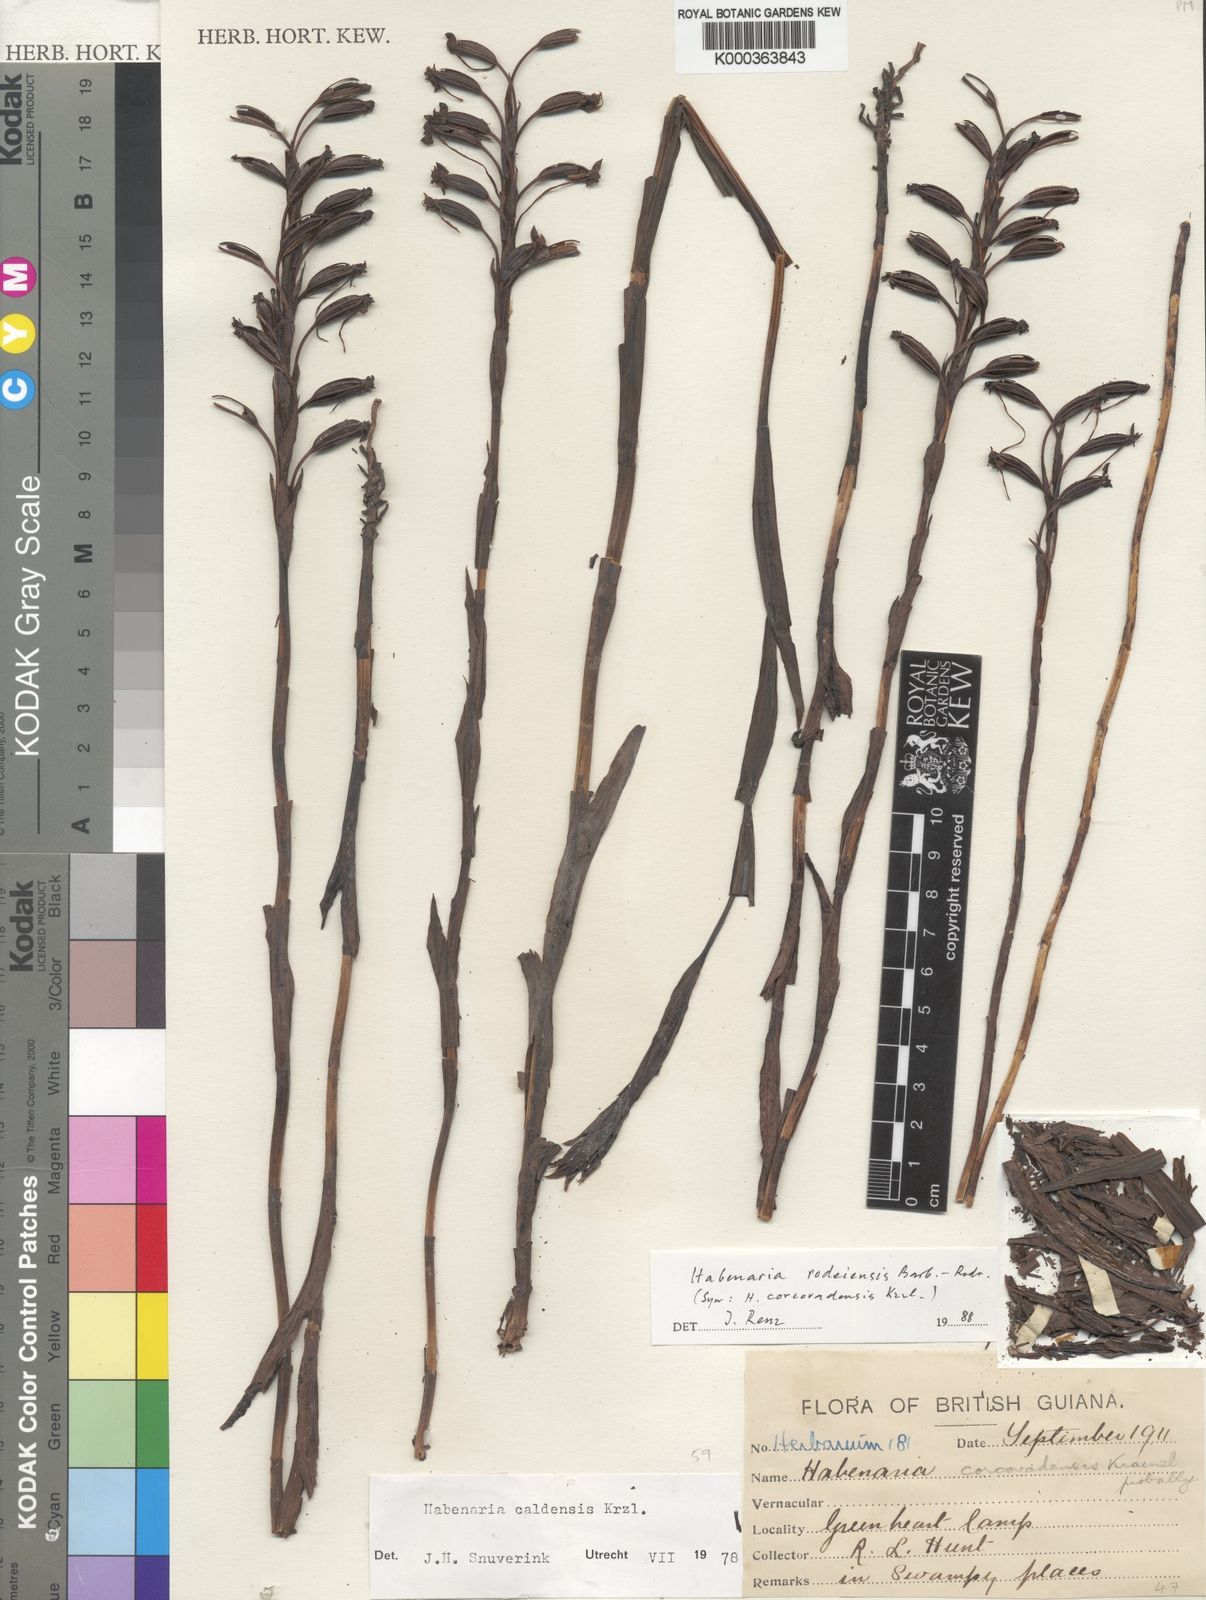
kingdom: Plantae
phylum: Tracheophyta
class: Liliopsida
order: Asparagales
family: Orchidaceae
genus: Habenaria
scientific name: Habenaria rodeiensis
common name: Bog orchid
